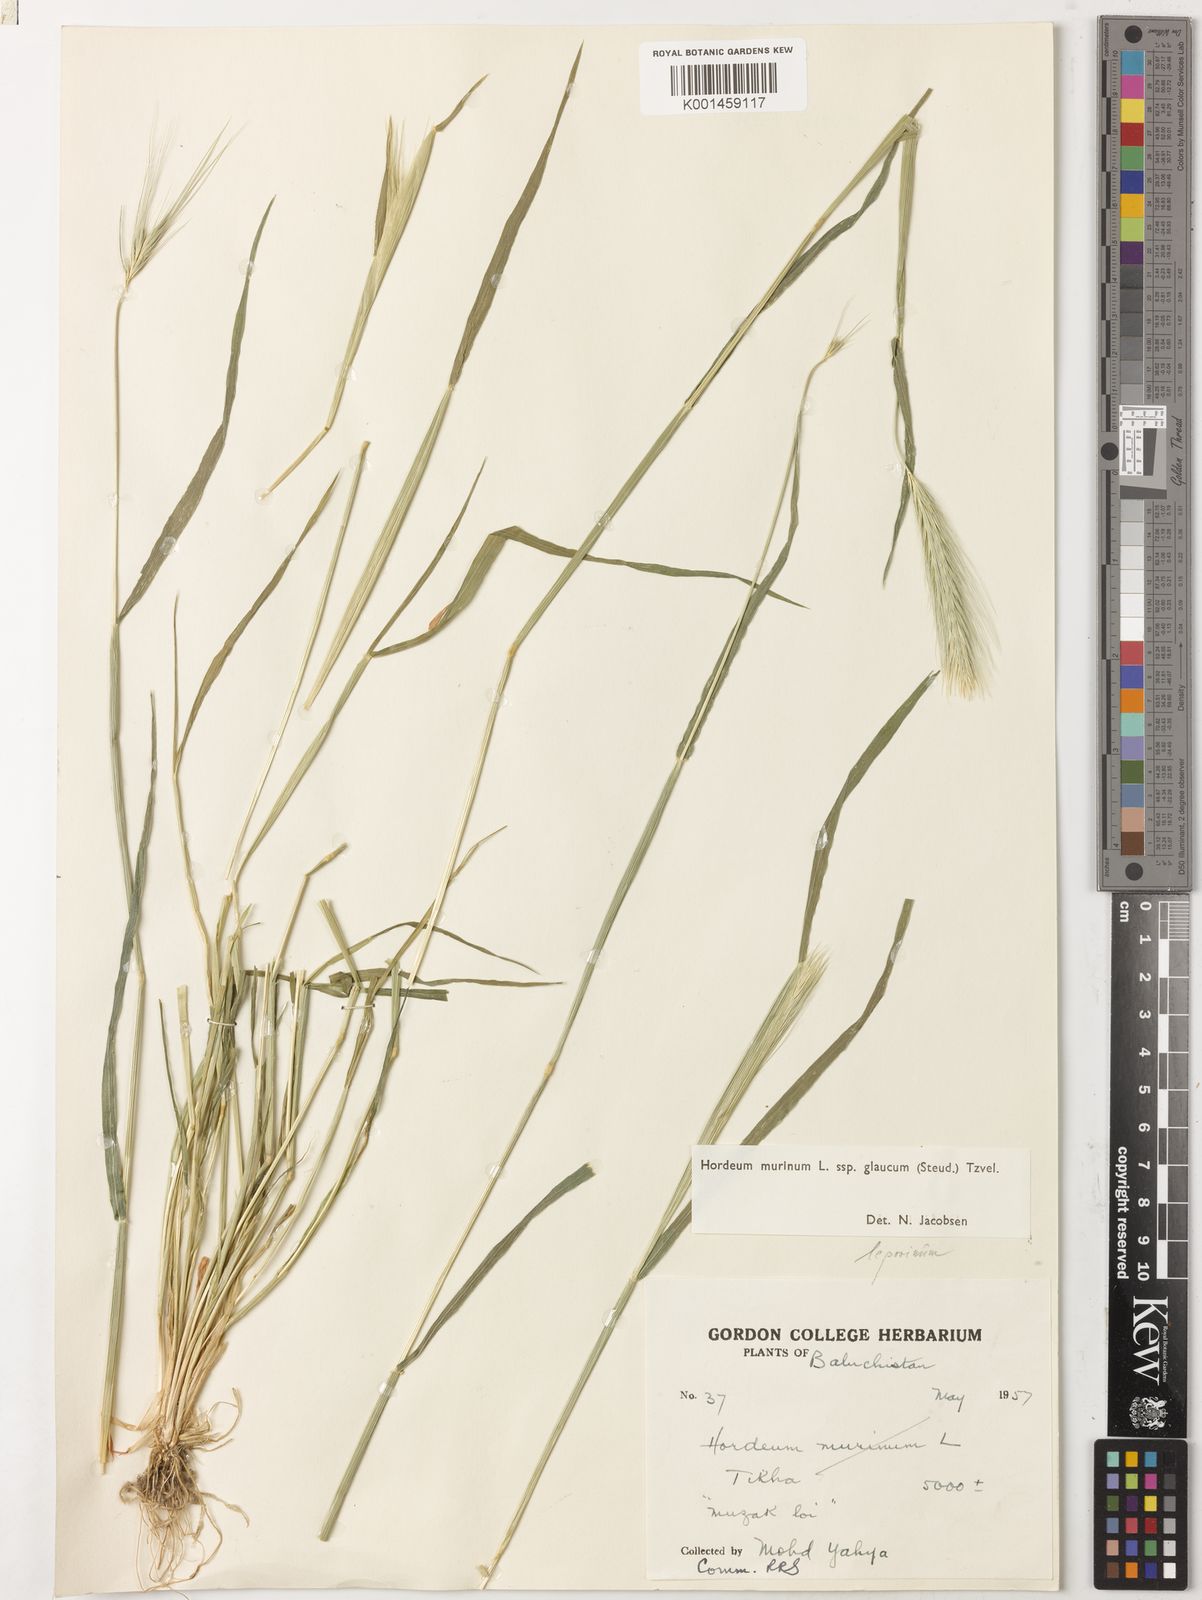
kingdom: Plantae
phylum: Tracheophyta
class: Liliopsida
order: Poales
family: Poaceae
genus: Hordeum
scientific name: Hordeum murinum
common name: Wall barley
